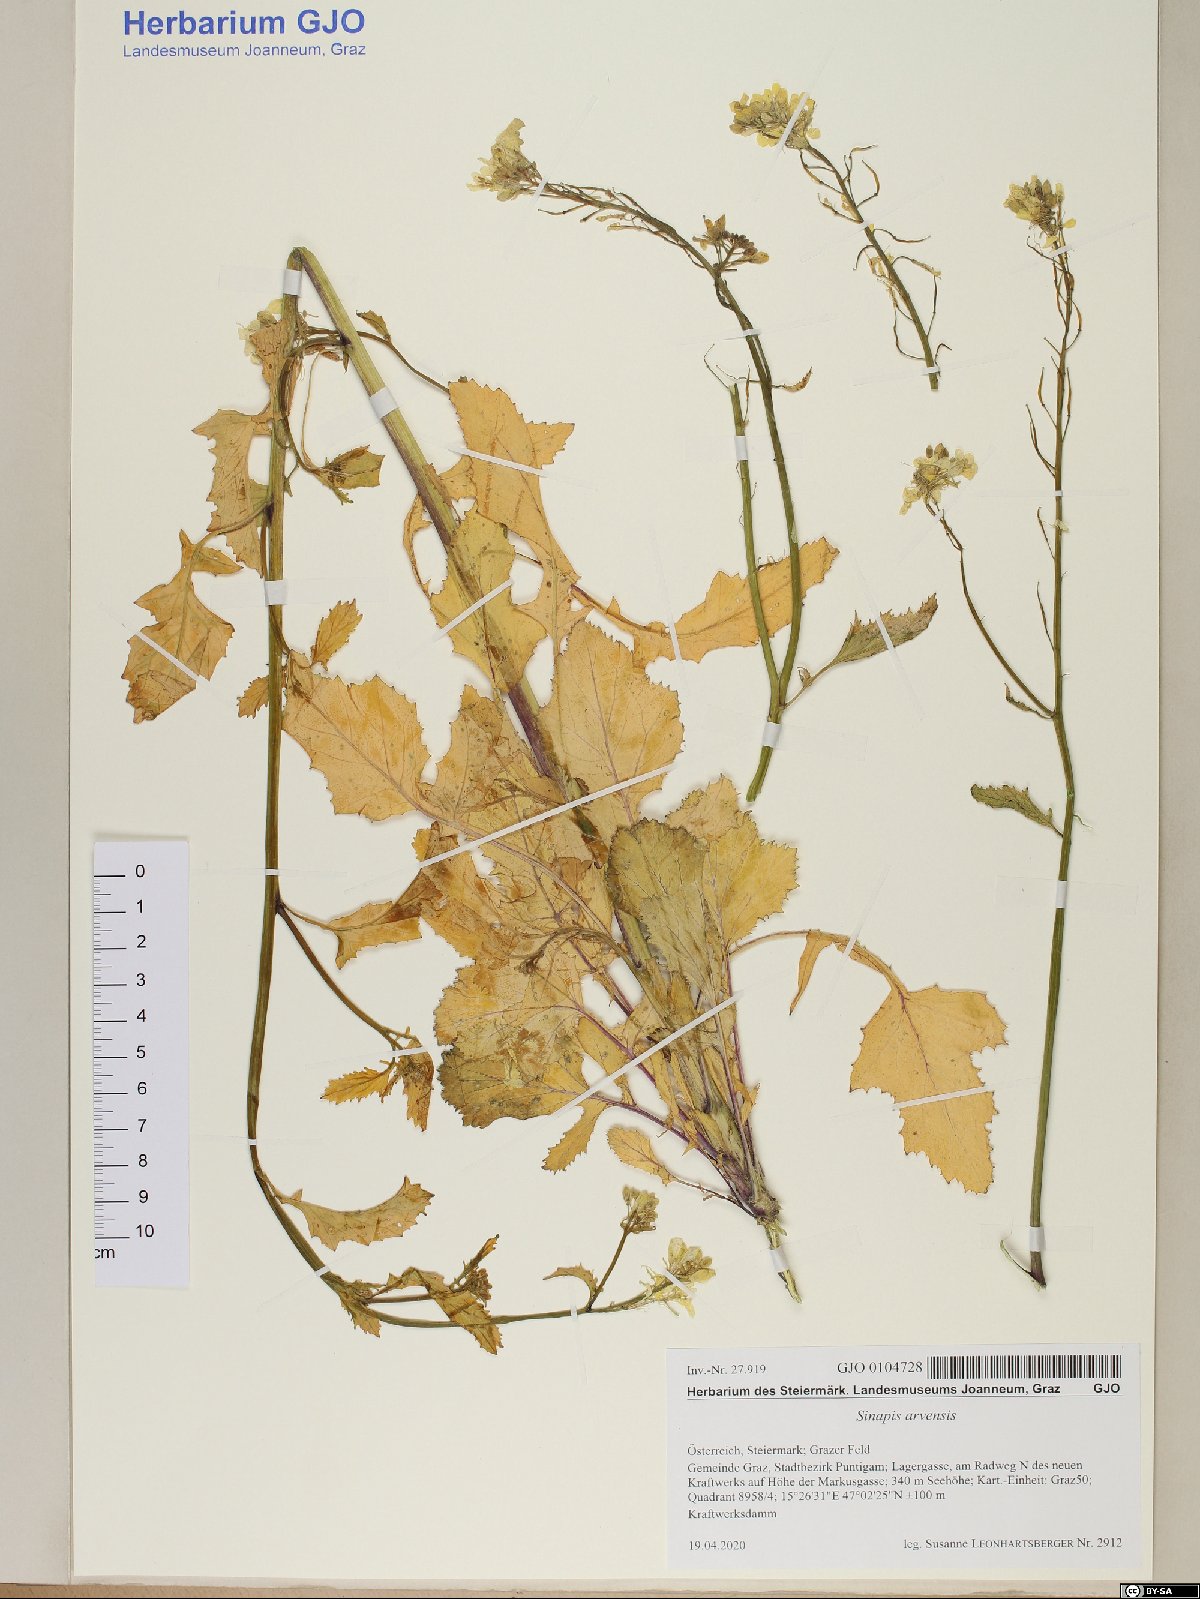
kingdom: Plantae
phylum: Tracheophyta
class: Magnoliopsida
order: Brassicales
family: Brassicaceae
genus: Sinapis
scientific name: Sinapis arvensis
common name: Charlock
